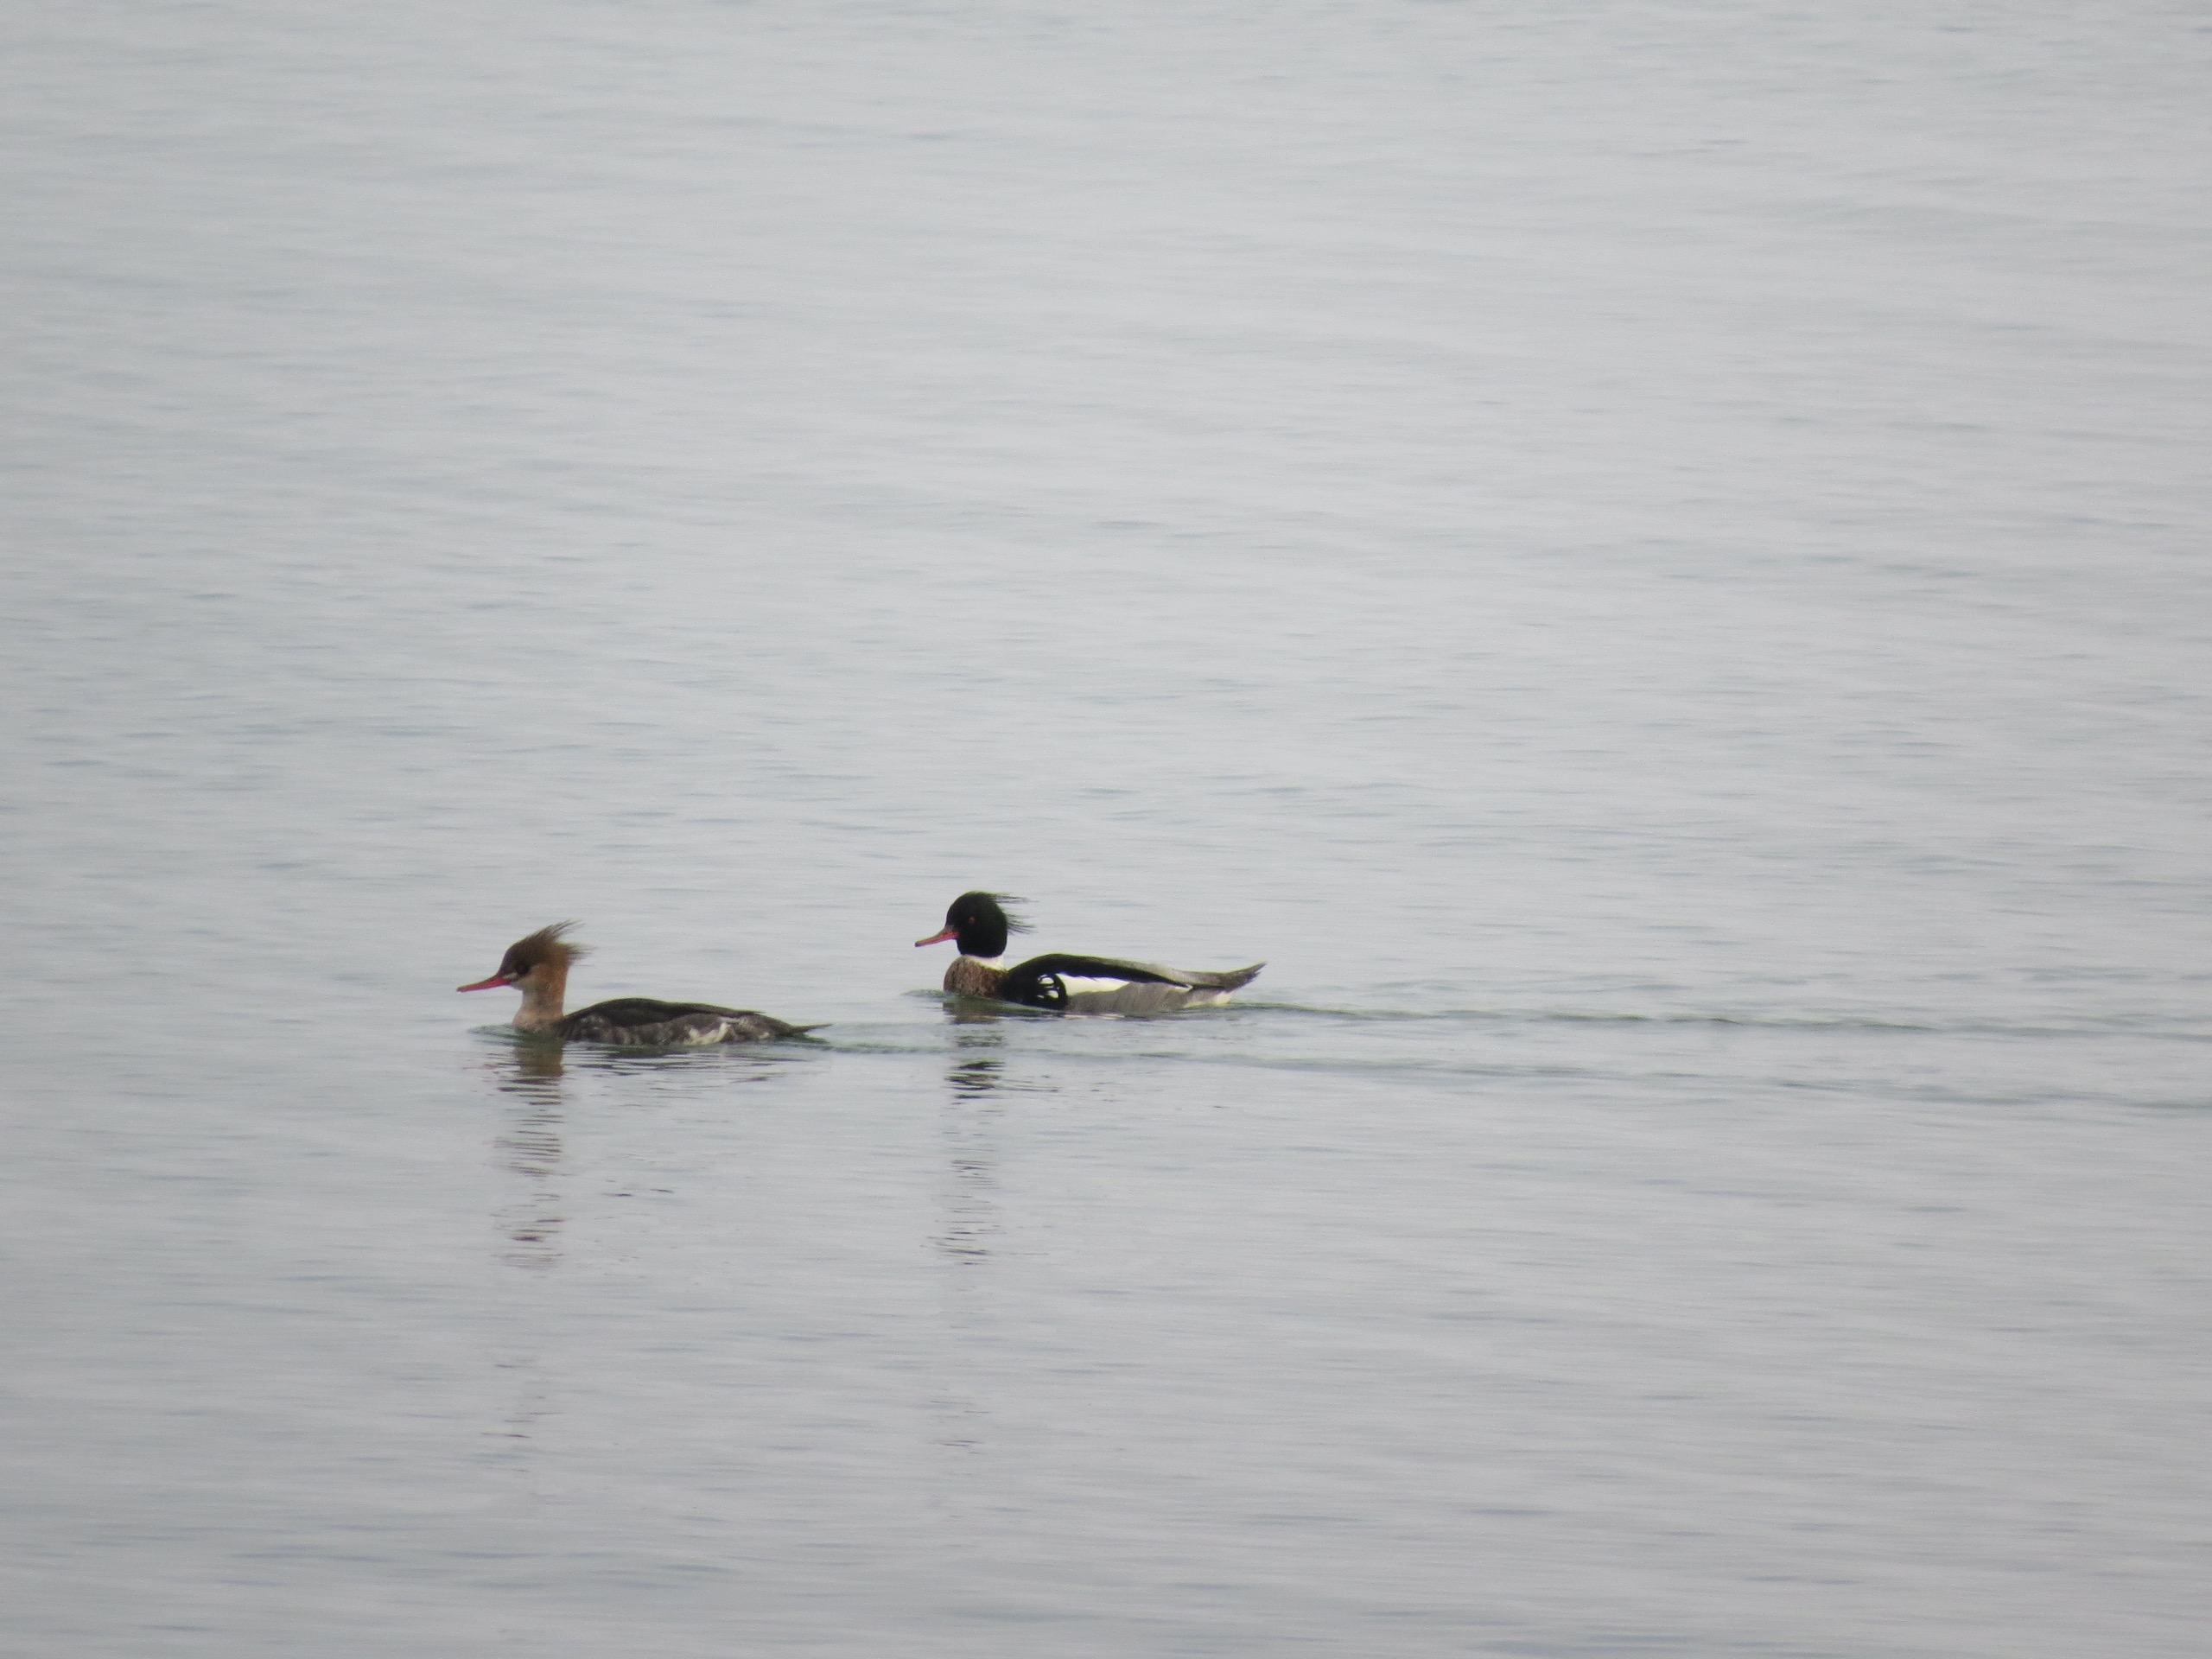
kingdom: Animalia
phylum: Chordata
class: Aves
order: Anseriformes
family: Anatidae
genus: Mergus
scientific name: Mergus serrator
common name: Toppet skallesluger
